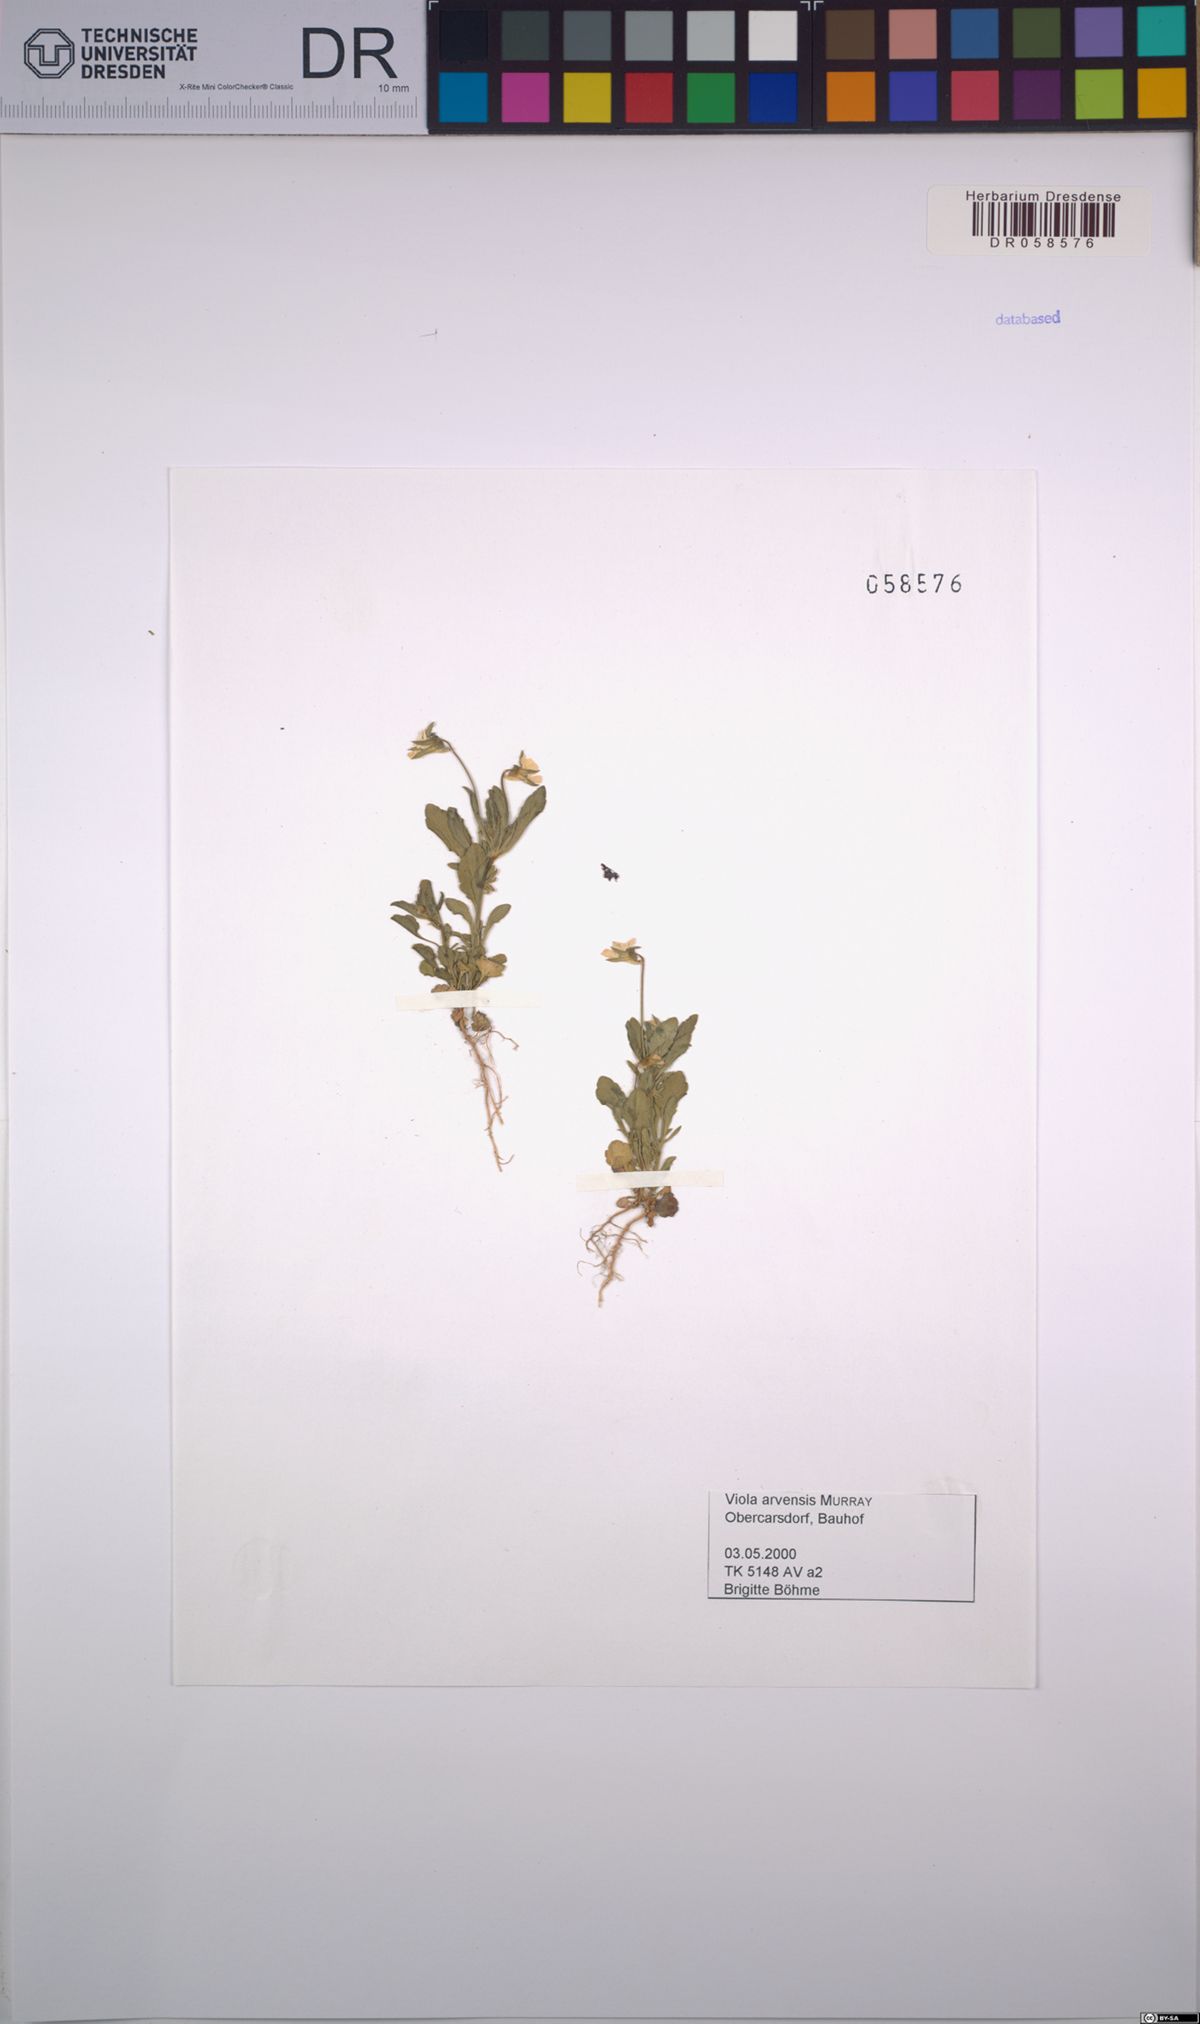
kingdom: Plantae
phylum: Tracheophyta
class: Magnoliopsida
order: Malpighiales
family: Violaceae
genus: Viola
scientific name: Viola arvensis
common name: Field pansy
